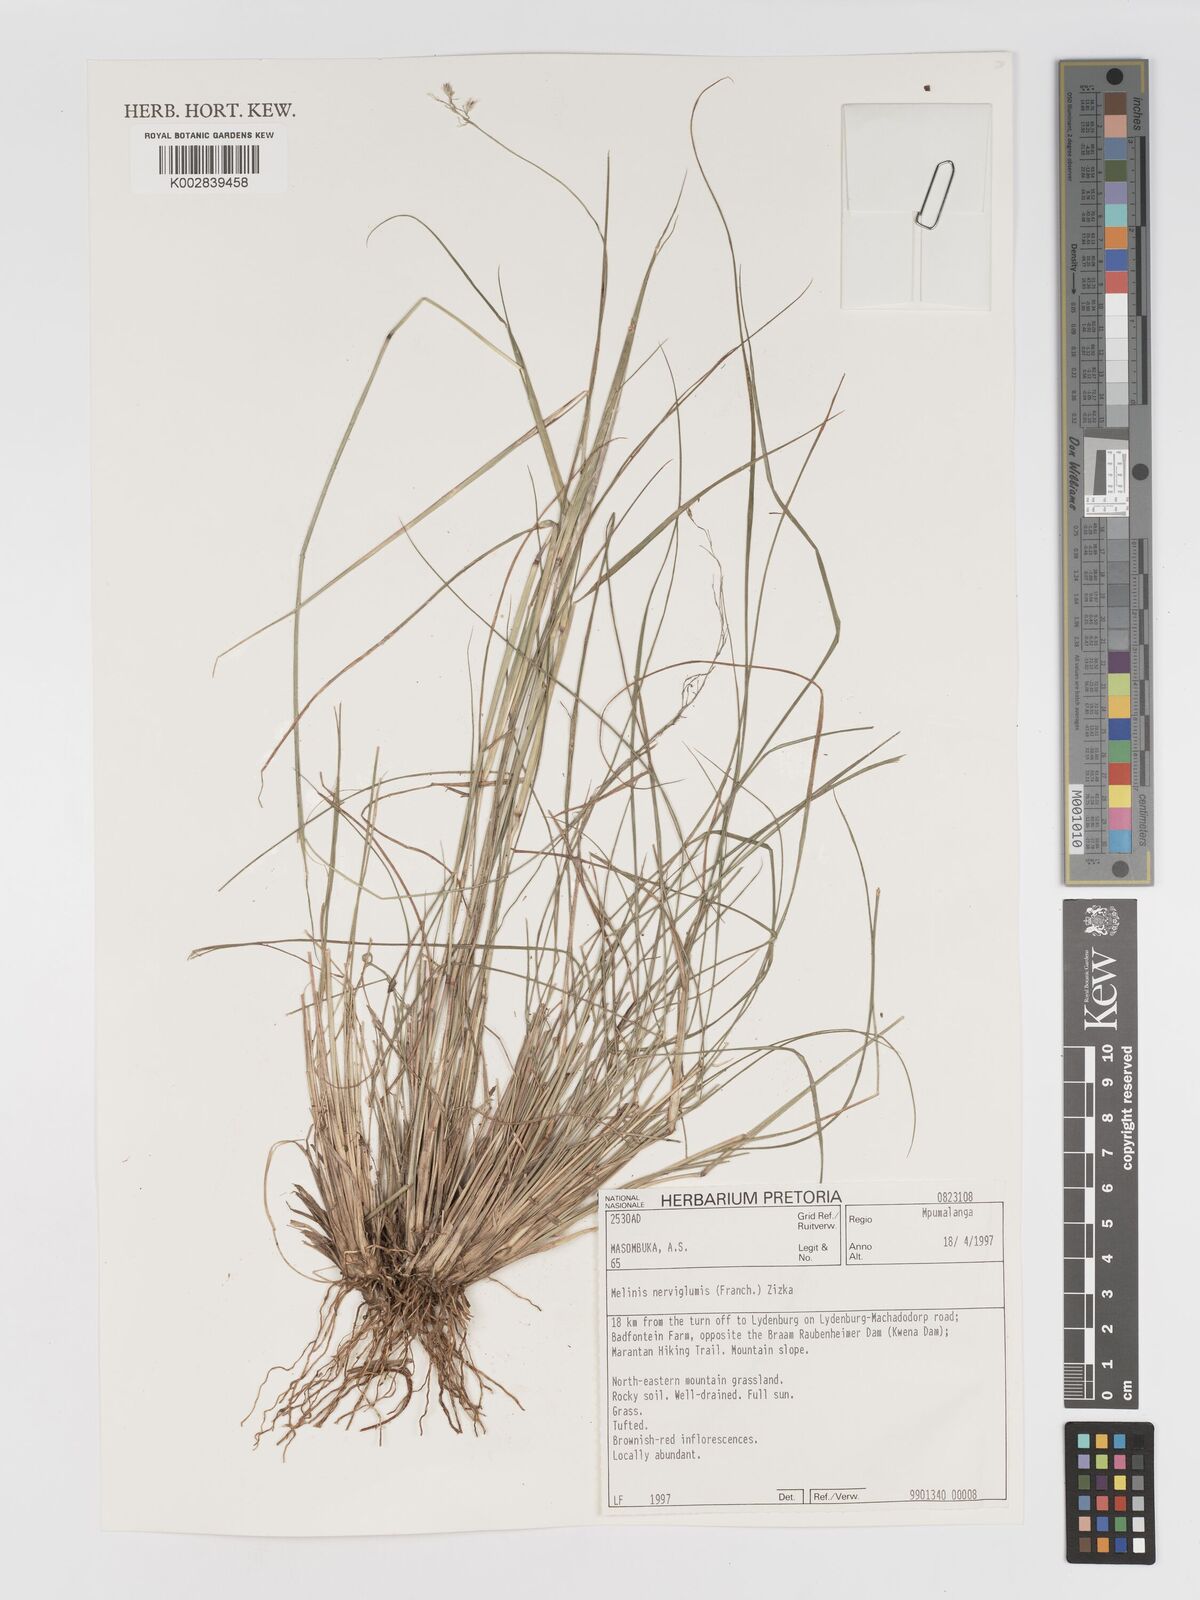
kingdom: Plantae
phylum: Tracheophyta
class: Liliopsida
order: Poales
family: Poaceae
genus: Melinis
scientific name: Melinis nerviglumis
